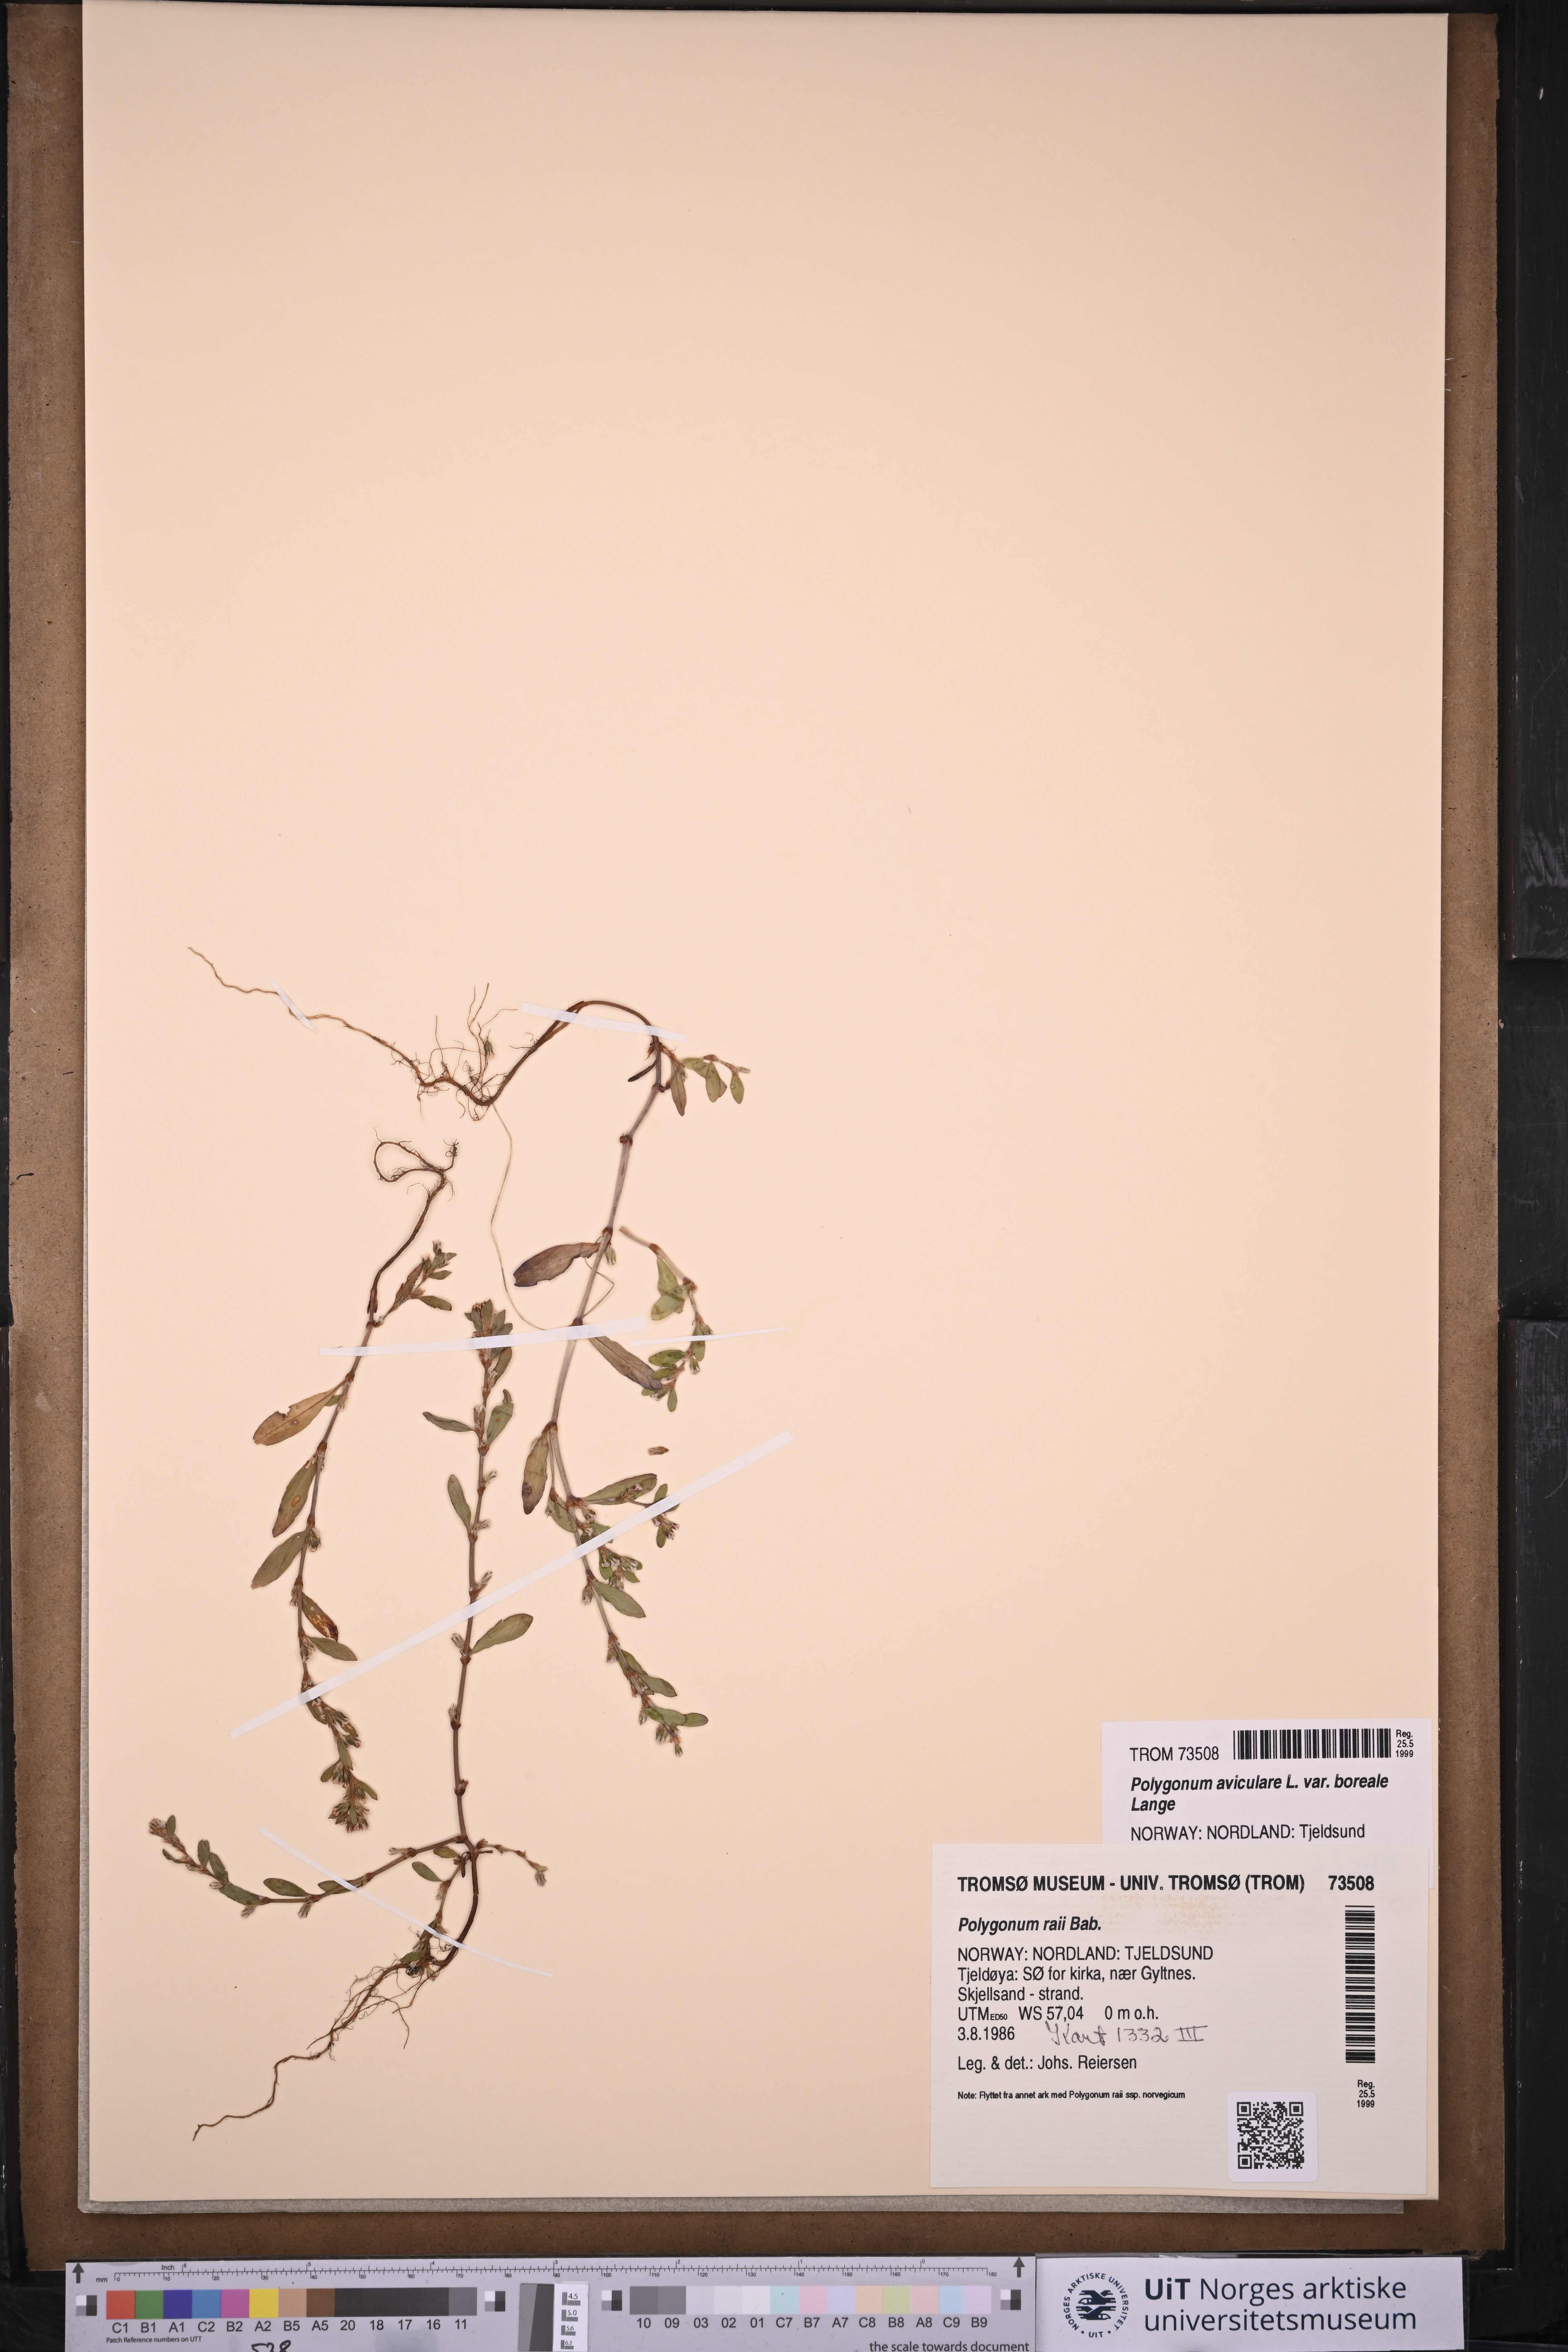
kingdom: Plantae
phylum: Tracheophyta
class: Magnoliopsida
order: Caryophyllales
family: Polygonaceae
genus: Polygonum
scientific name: Polygonum boreale
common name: Northern knotgrass
